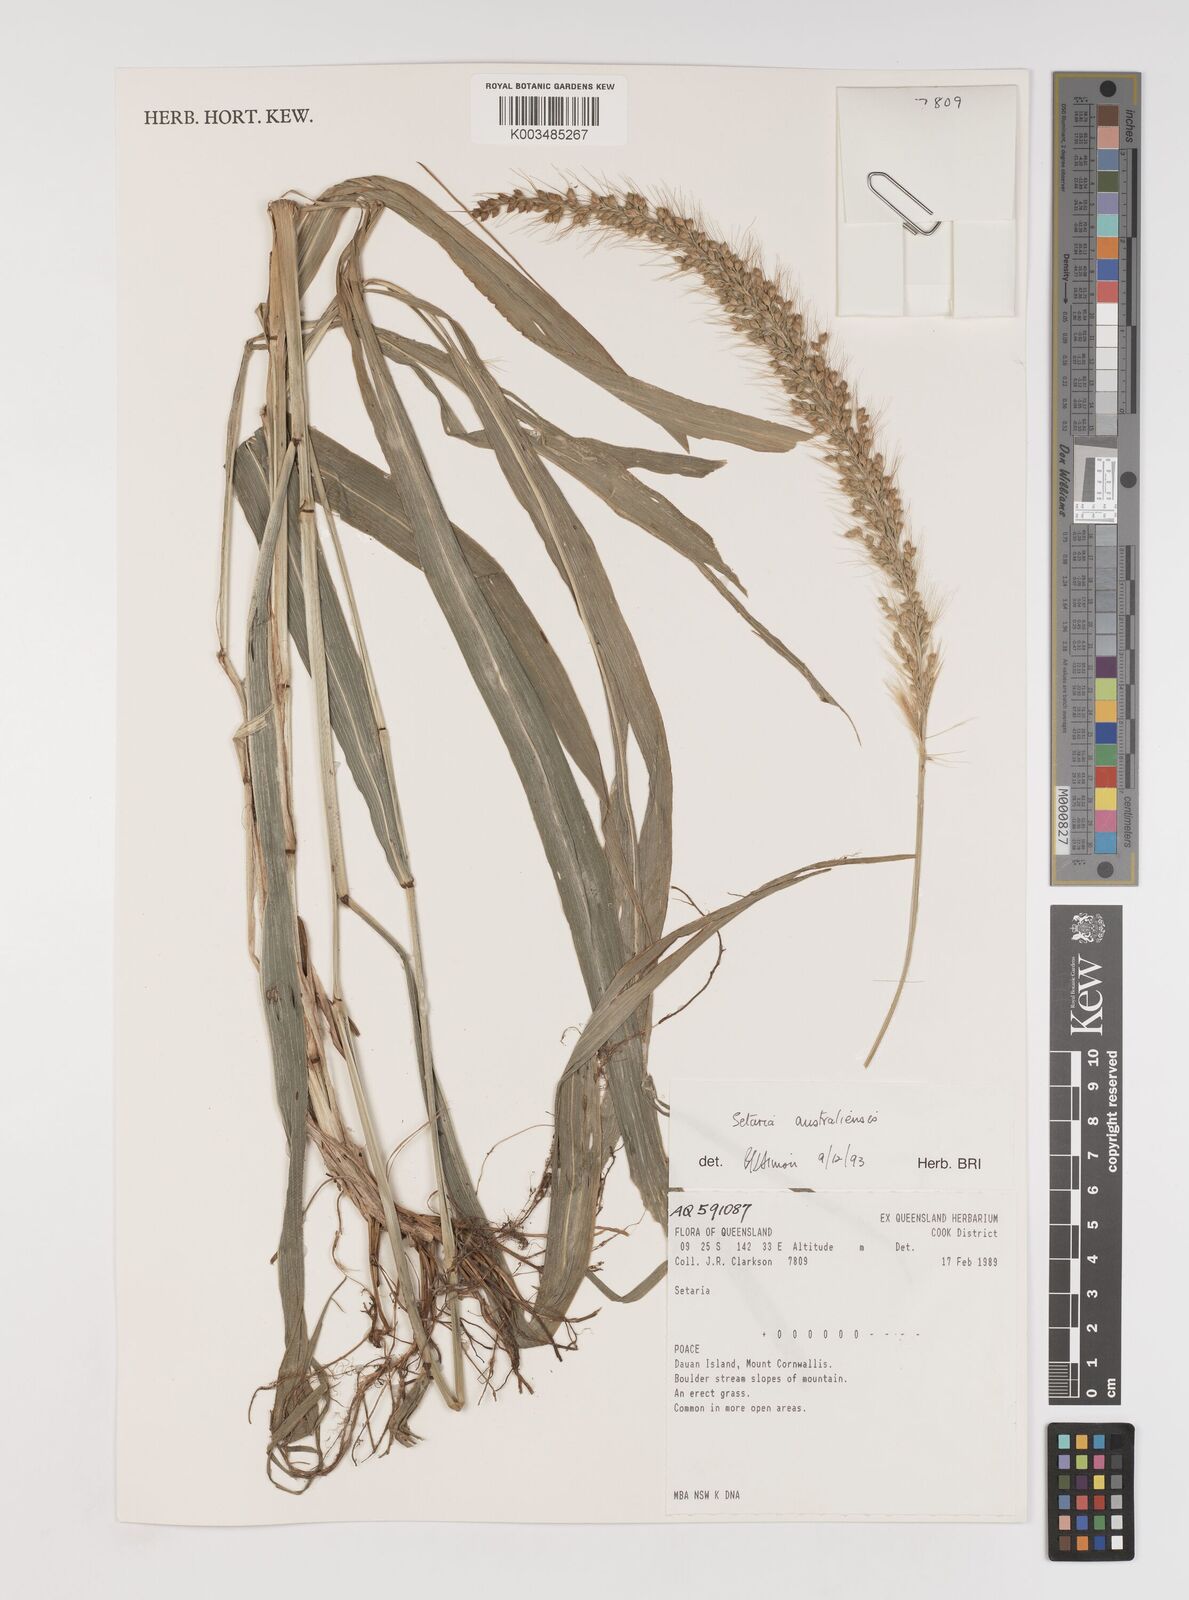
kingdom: Plantae
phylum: Tracheophyta
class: Liliopsida
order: Poales
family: Poaceae
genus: Setaria
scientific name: Setaria australiensis
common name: Scrub pigeon grass
